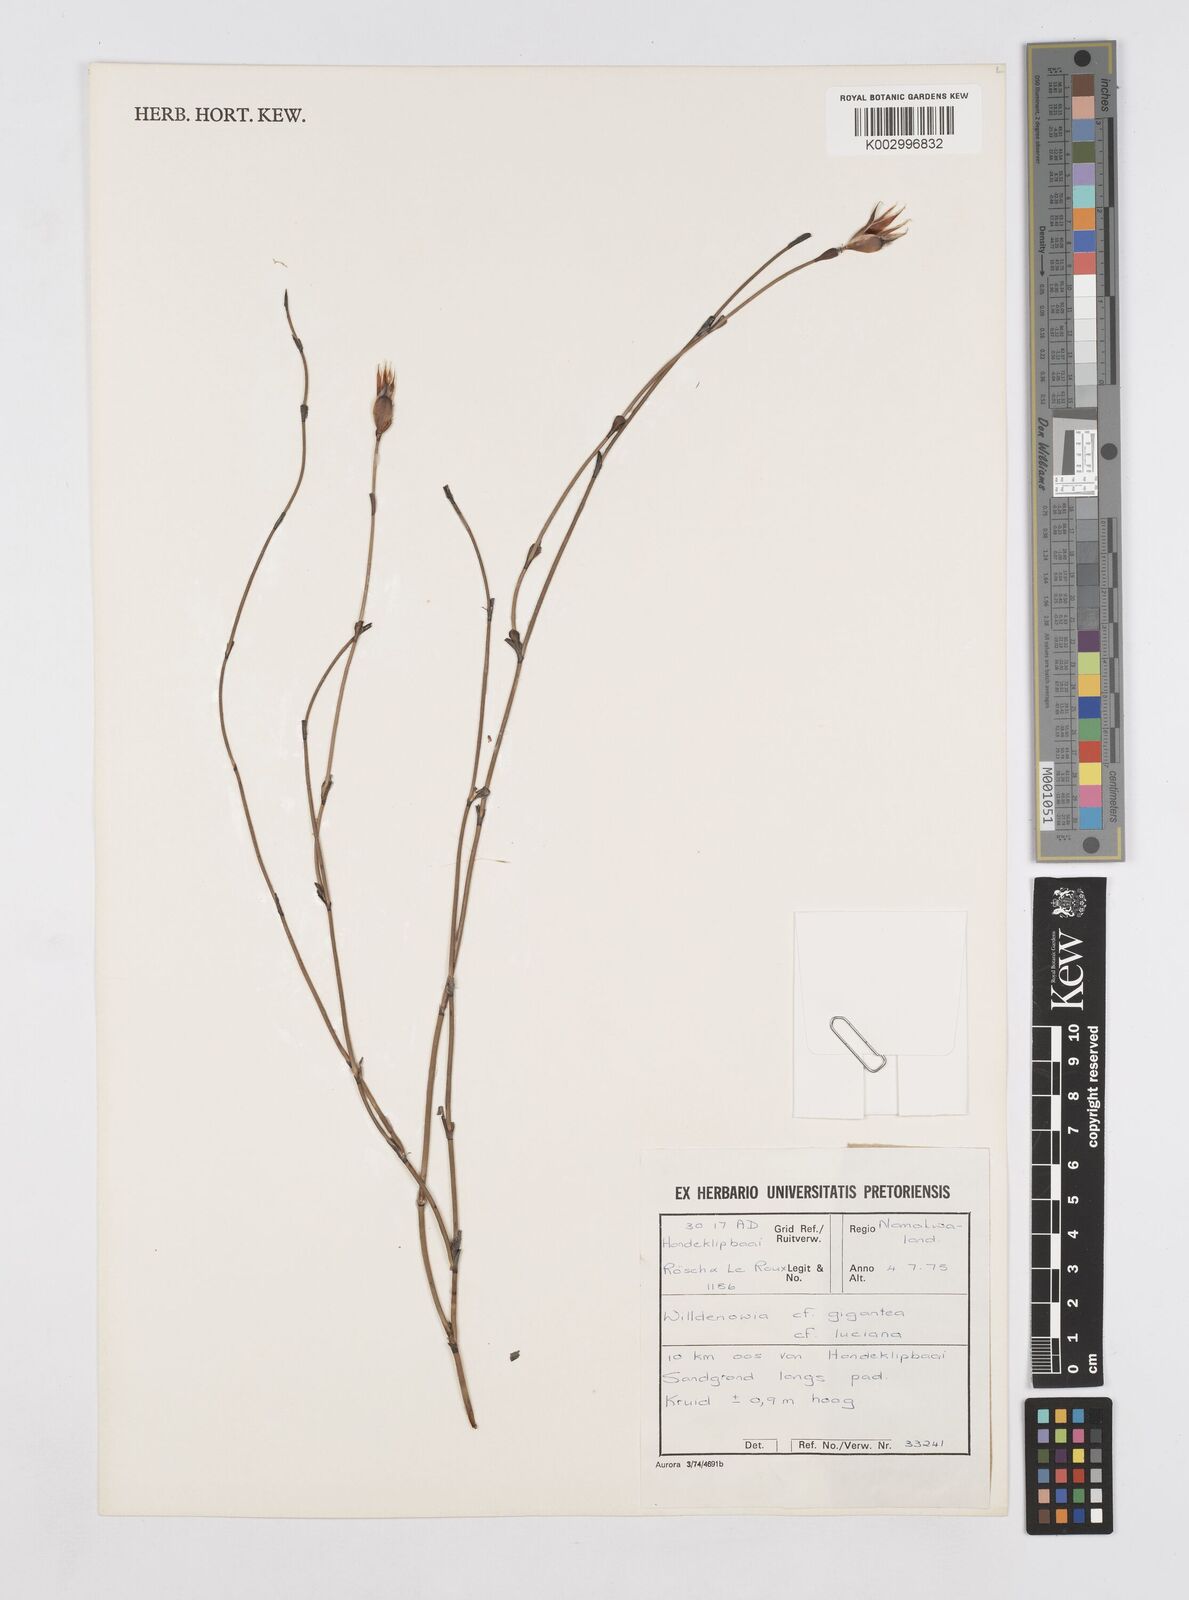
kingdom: Plantae
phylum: Tracheophyta
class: Liliopsida
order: Poales
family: Restionaceae
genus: Willdenowia
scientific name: Willdenowia
